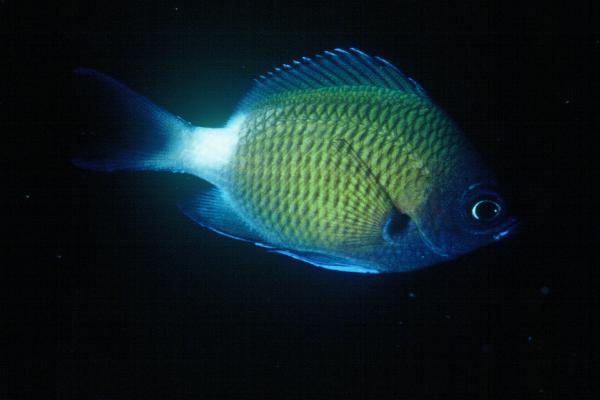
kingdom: Animalia
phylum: Chordata
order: Perciformes
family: Pomacentridae
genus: Chromis
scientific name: Chromis chrysura
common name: Stout-body chromis
